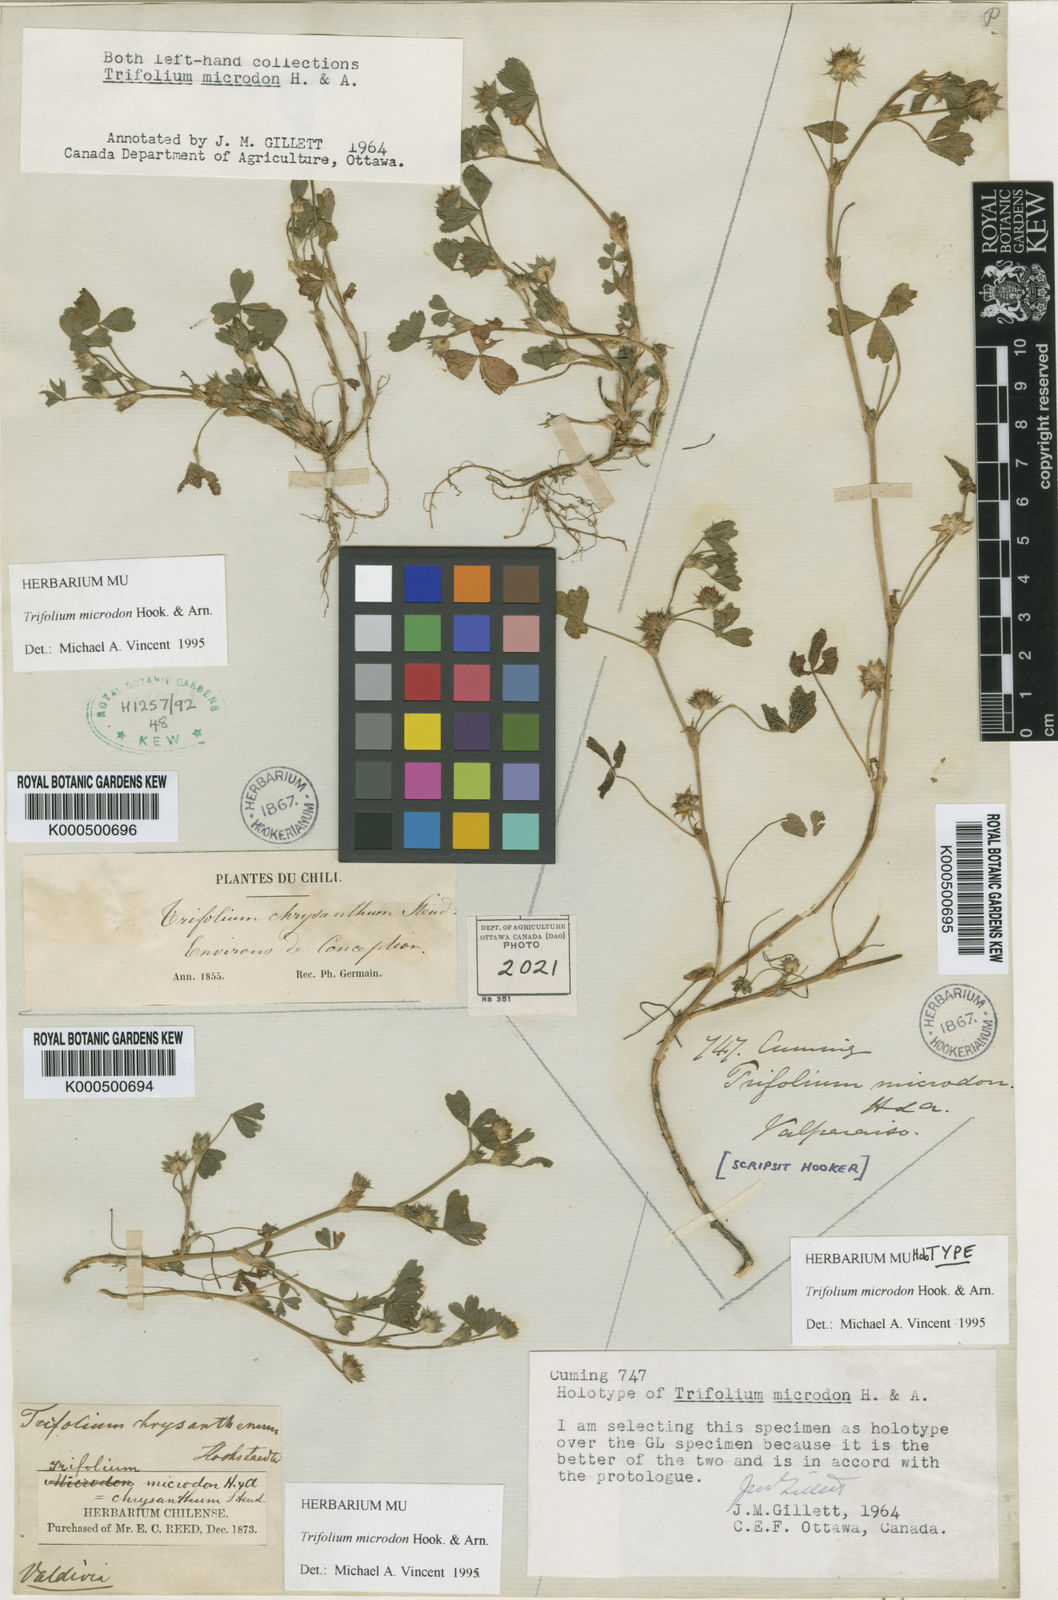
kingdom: Plantae
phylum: Tracheophyta
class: Magnoliopsida
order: Fabales
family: Fabaceae
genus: Trifolium
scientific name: Trifolium microdon
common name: Thimble clover
